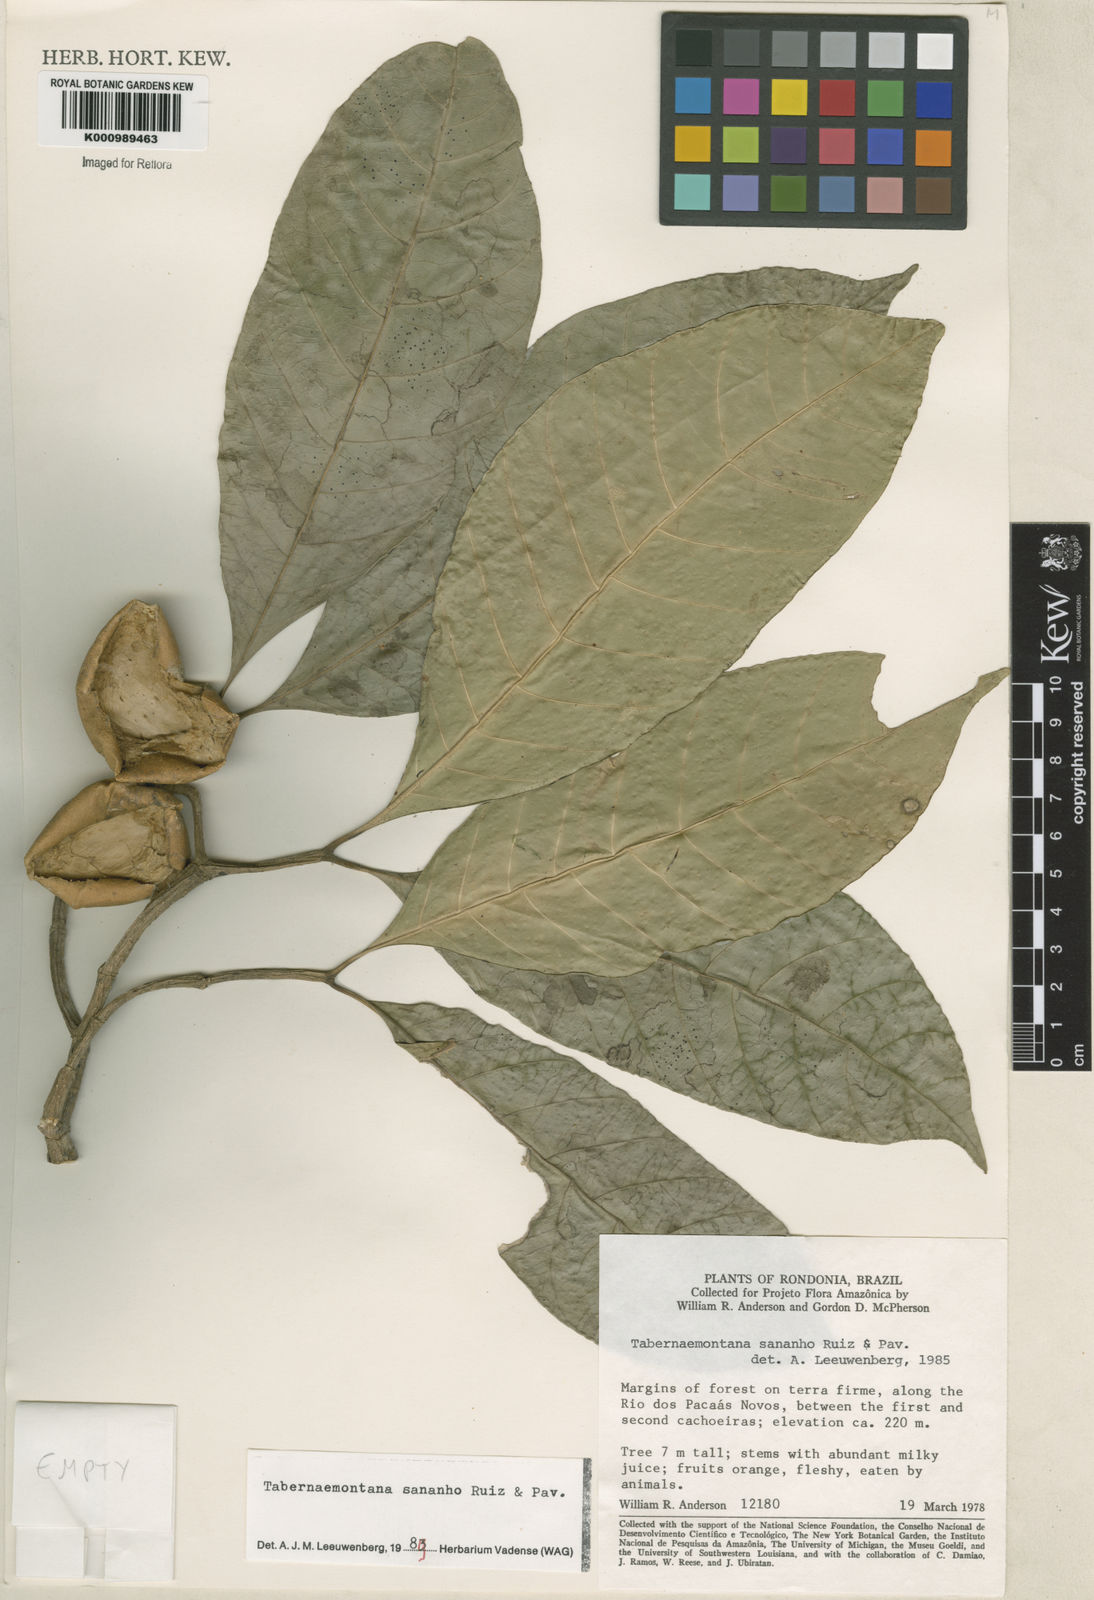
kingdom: Plantae
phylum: Tracheophyta
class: Magnoliopsida
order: Gentianales
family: Apocynaceae
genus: Tabernaemontana
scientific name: Tabernaemontana sananho
